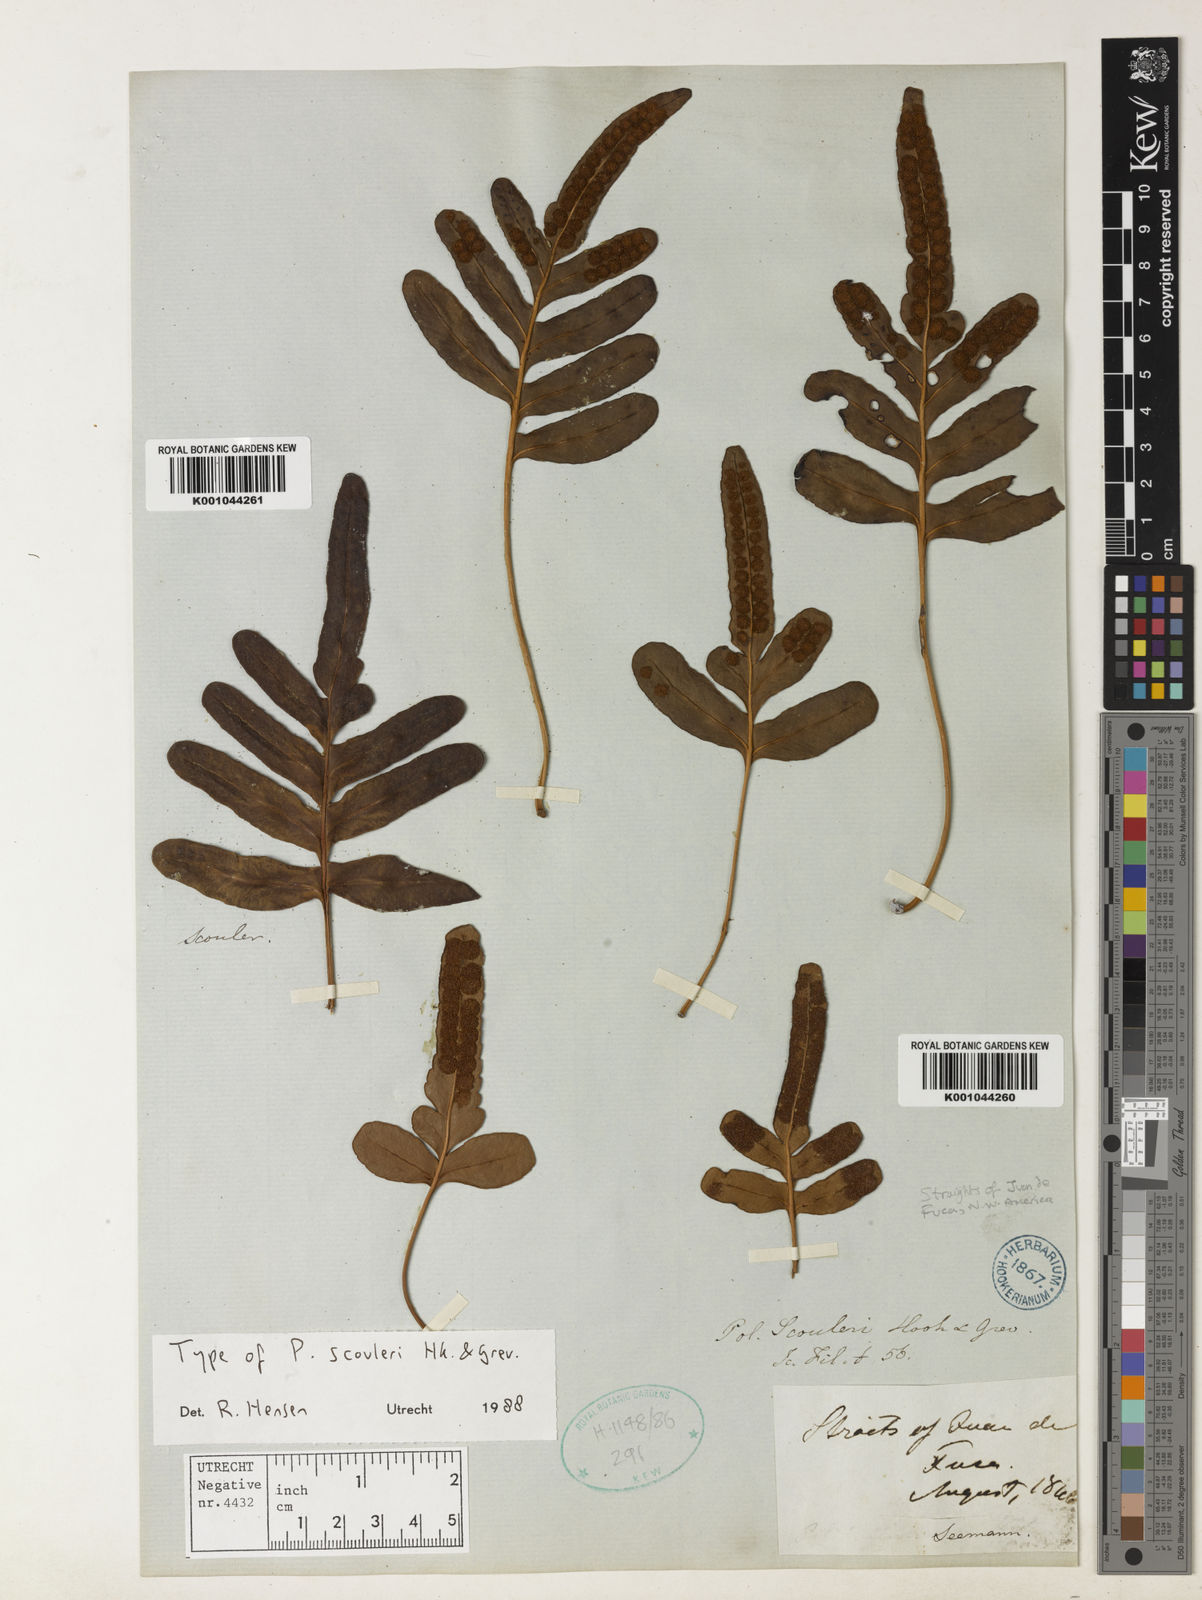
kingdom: Plantae
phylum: Tracheophyta
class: Polypodiopsida
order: Polypodiales
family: Polypodiaceae
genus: Polypodium
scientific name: Polypodium scouleri
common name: Scouler's polypody
